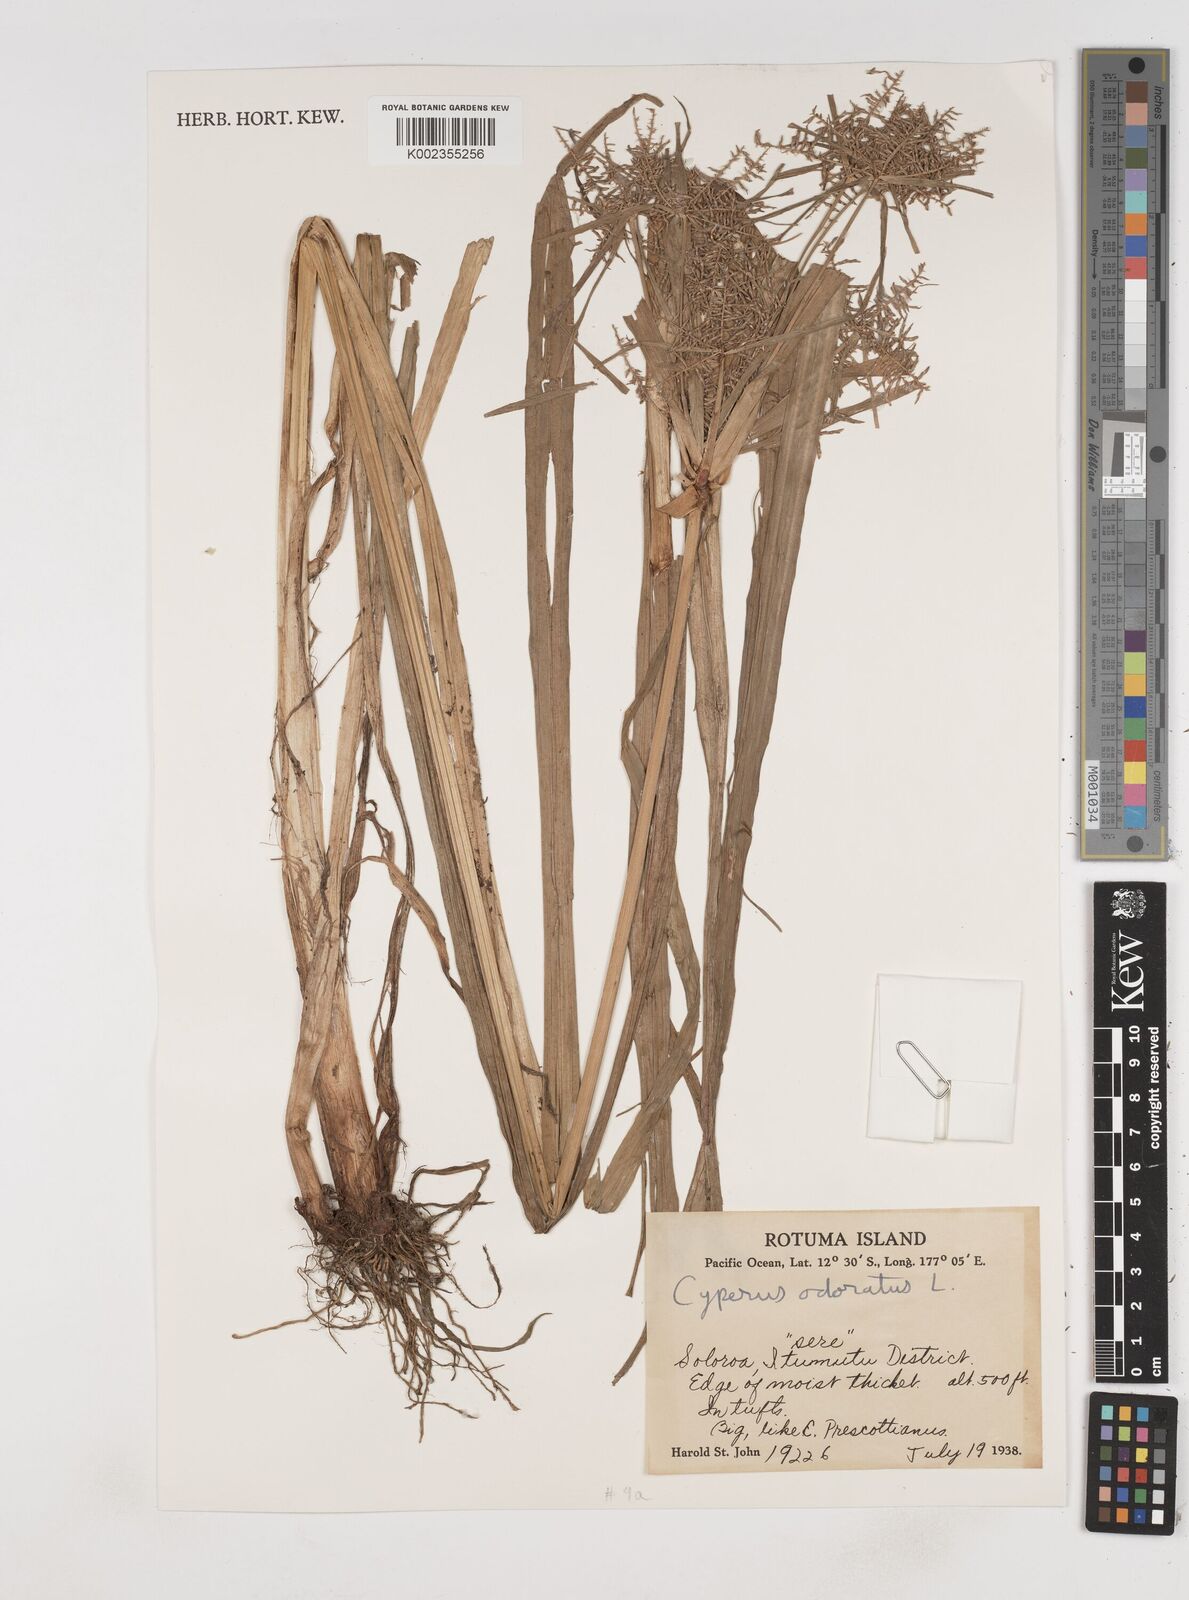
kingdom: Plantae
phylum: Tracheophyta
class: Liliopsida
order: Poales
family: Cyperaceae
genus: Cyperus
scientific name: Cyperus odoratus
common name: Fragrant flatsedge
